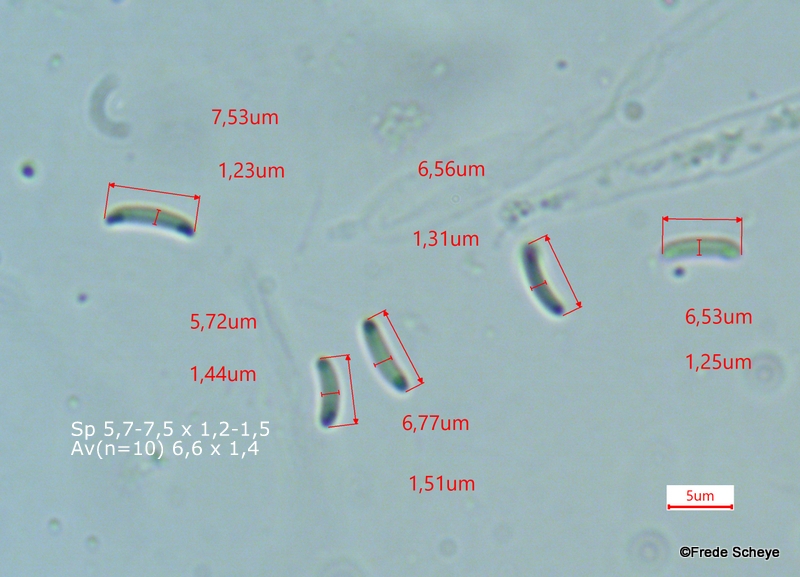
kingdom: Fungi
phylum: Ascomycota
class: Sordariomycetes
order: Xylariales
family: Diatrypaceae
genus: Diatrype
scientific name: Diatrype disciformis
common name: kant-kulskorpe
